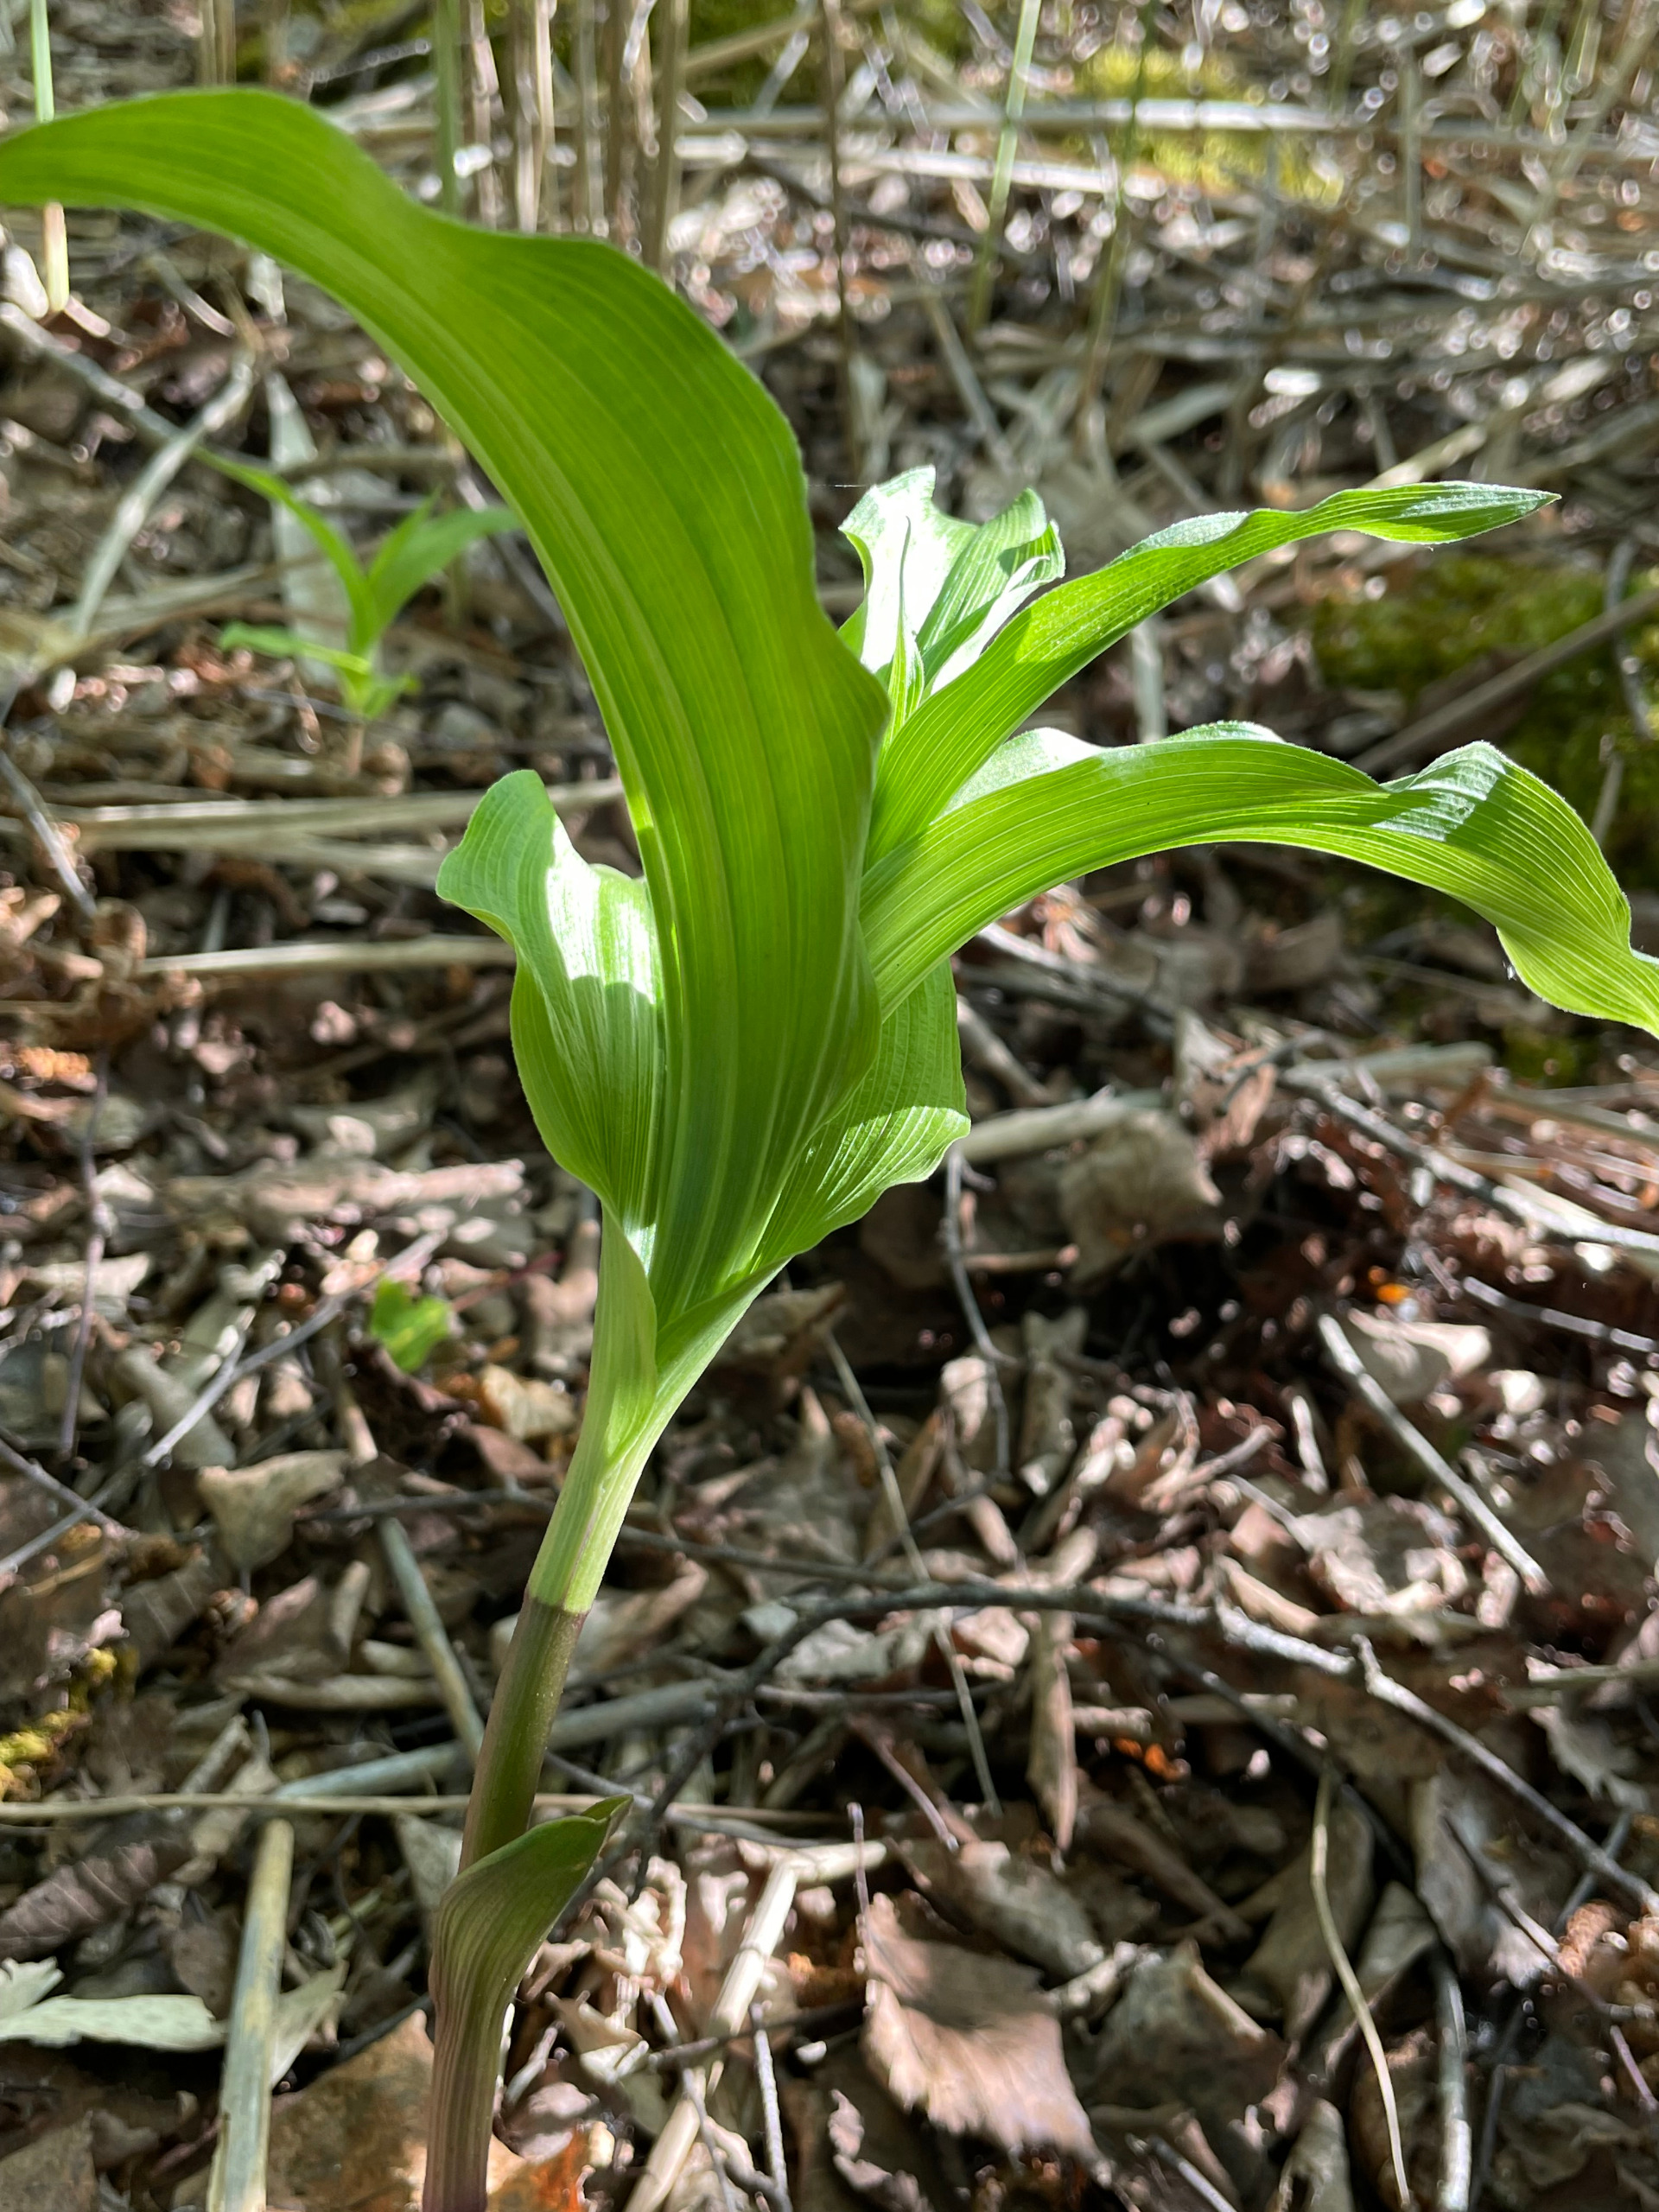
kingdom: Plantae
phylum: Tracheophyta
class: Liliopsida
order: Asparagales
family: Orchidaceae
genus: Epipactis
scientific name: Epipactis helleborine
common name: Skov-hullæbe
